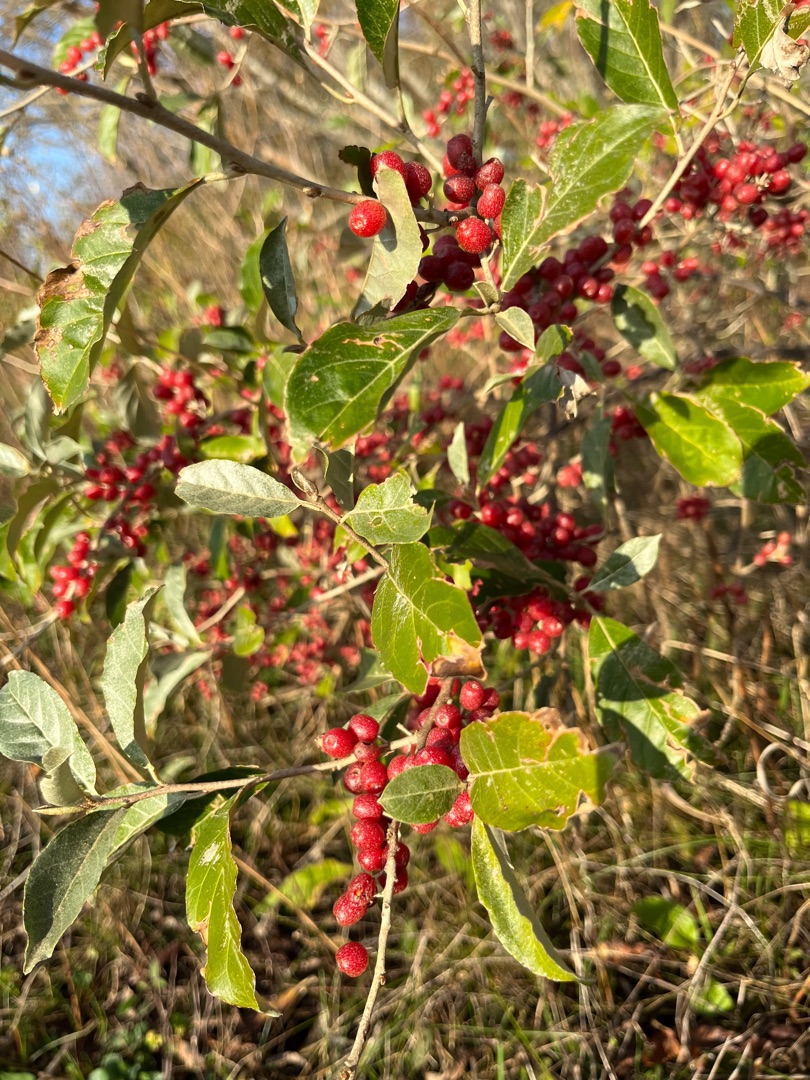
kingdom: Plantae
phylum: Tracheophyta
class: Magnoliopsida
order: Rosales
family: Elaeagnaceae
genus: Elaeagnus
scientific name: Elaeagnus umbellata
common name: Skærm-sølvblad
